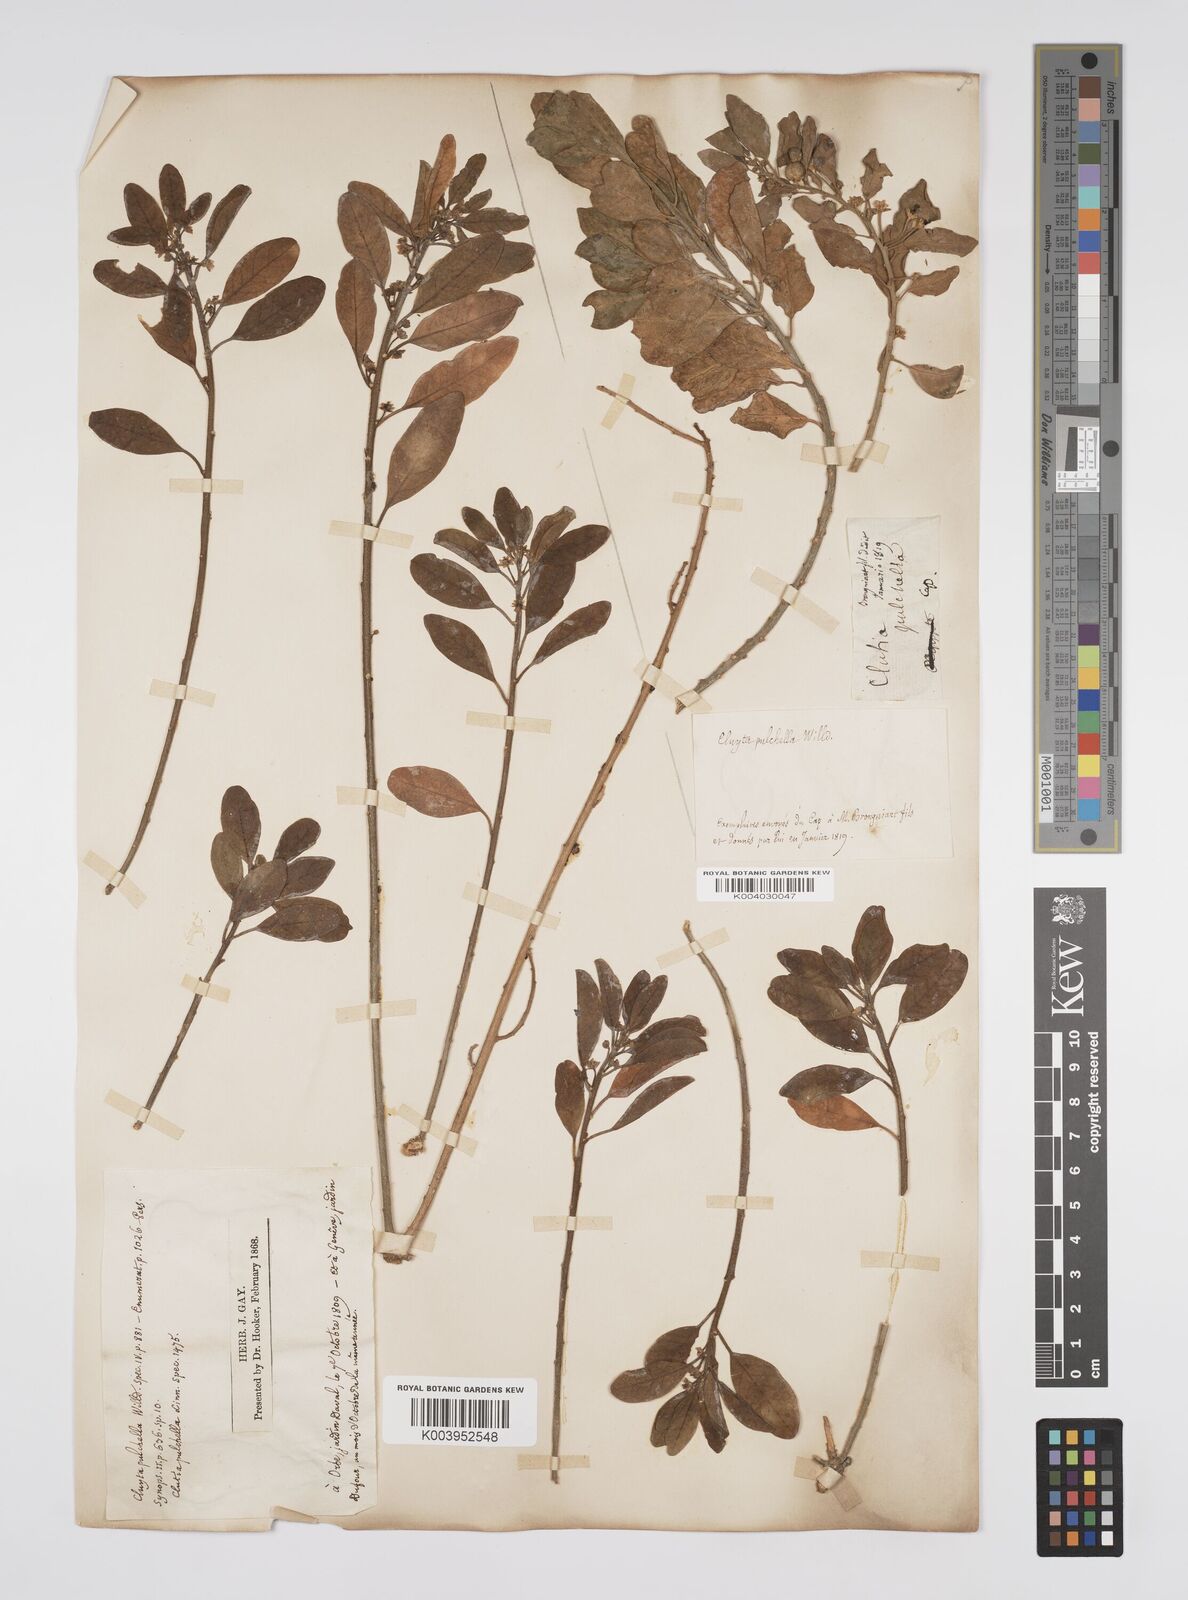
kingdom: Plantae
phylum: Tracheophyta
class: Magnoliopsida
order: Malpighiales
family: Peraceae
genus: Clutia
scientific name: Clutia pulchella
